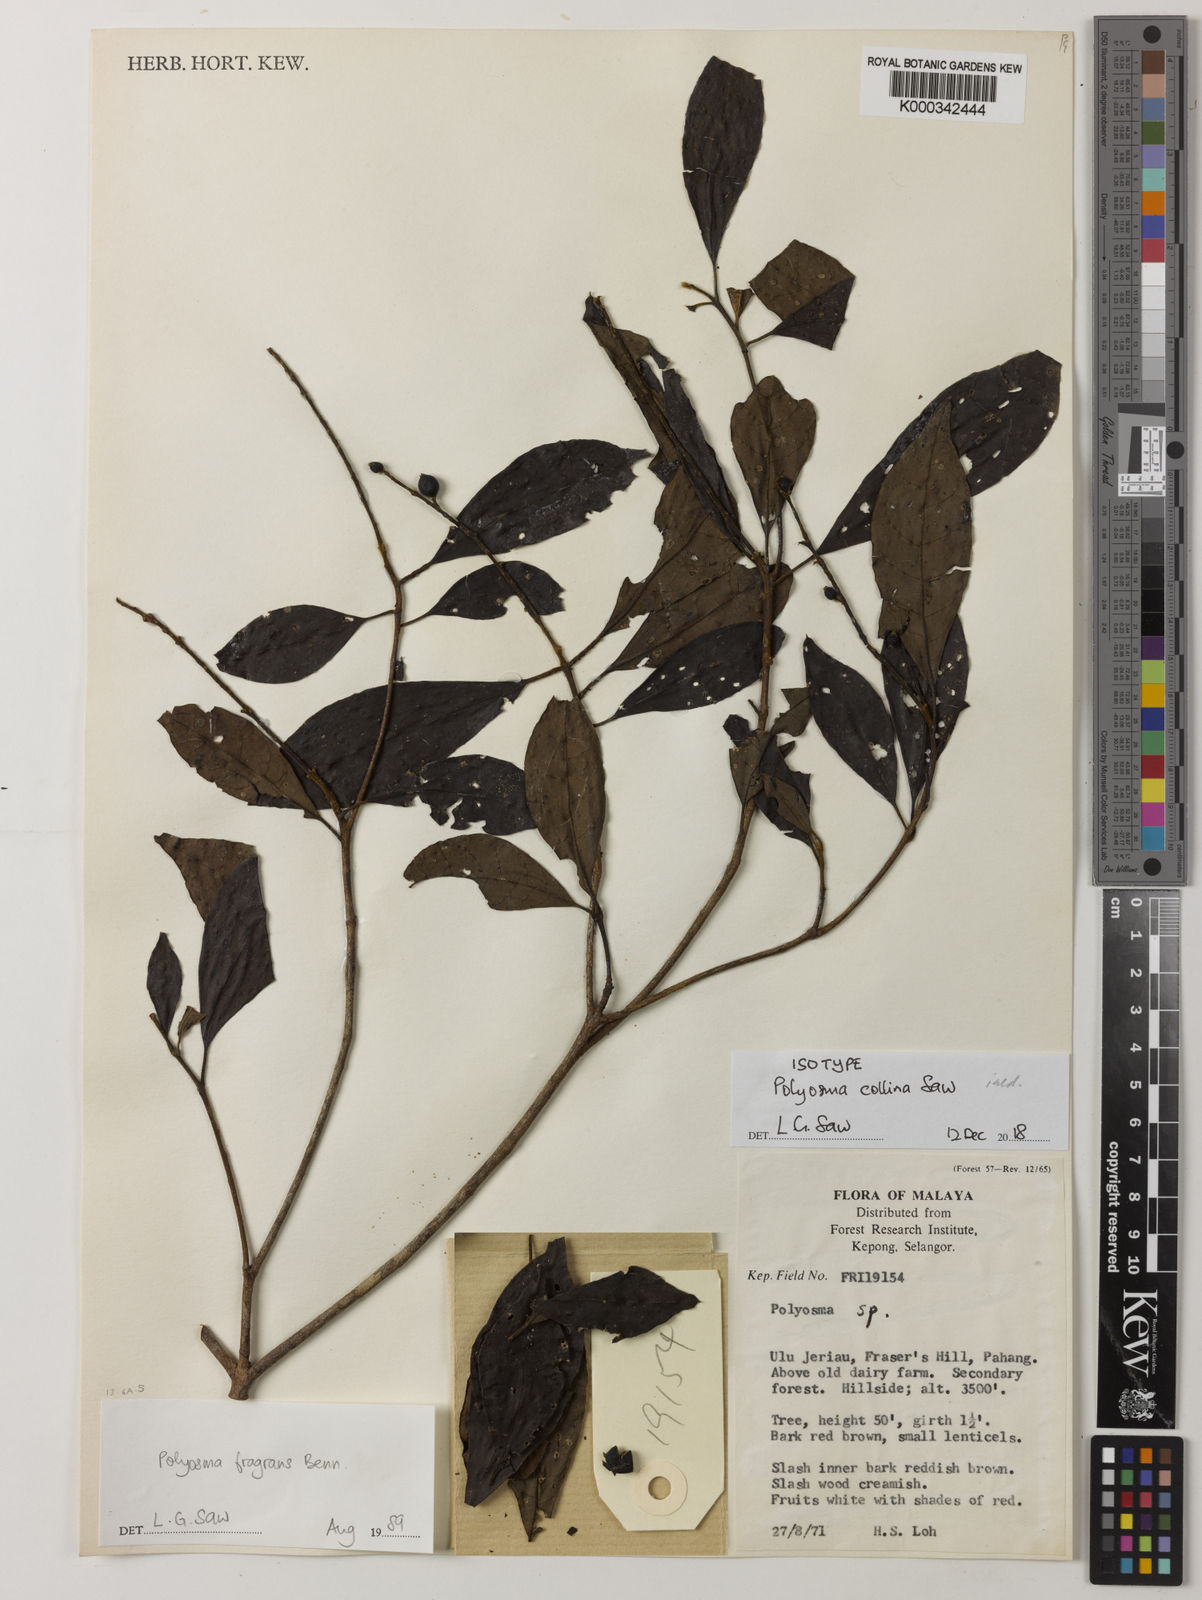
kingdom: Plantae
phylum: Tracheophyta
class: Magnoliopsida
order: Escalloniales
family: Escalloniaceae
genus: Polyosma
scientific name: Polyosma
